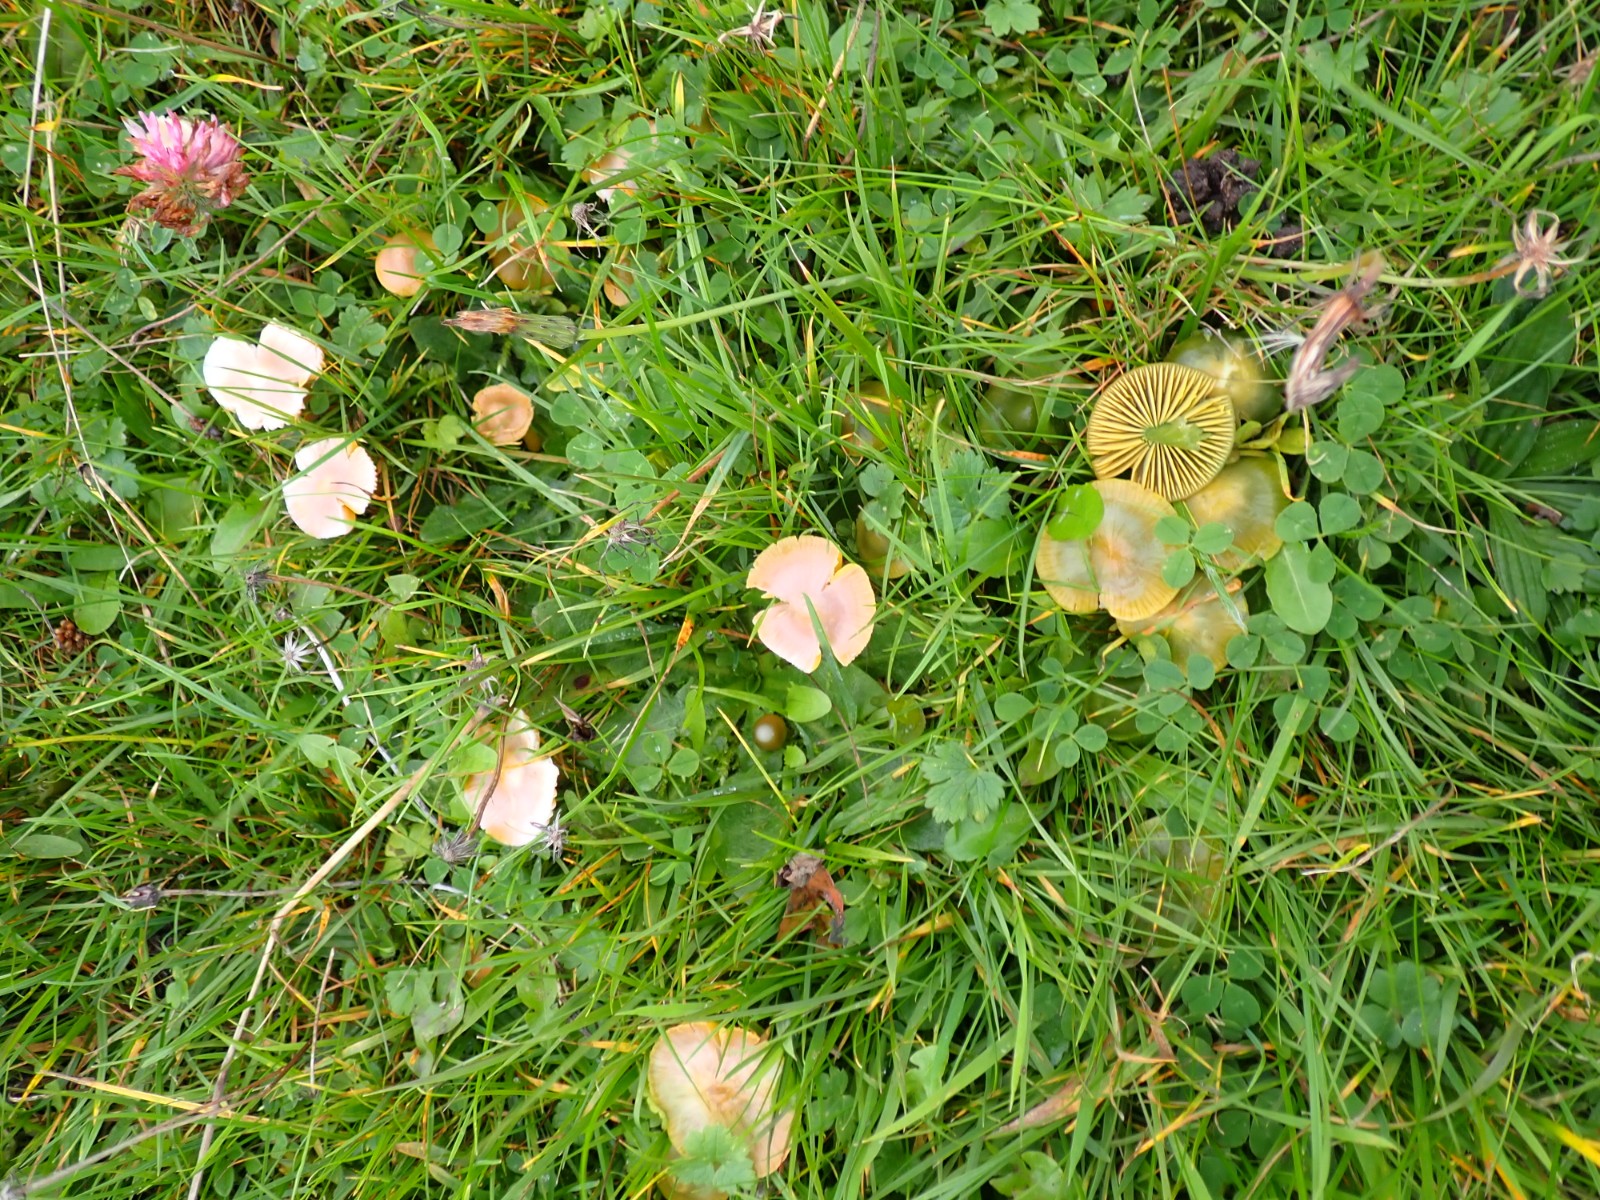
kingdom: Fungi
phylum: Basidiomycota
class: Agaricomycetes
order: Agaricales
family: Hygrophoraceae
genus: Gliophorus
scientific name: Gliophorus psittacinus
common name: papegøje-vokshat
